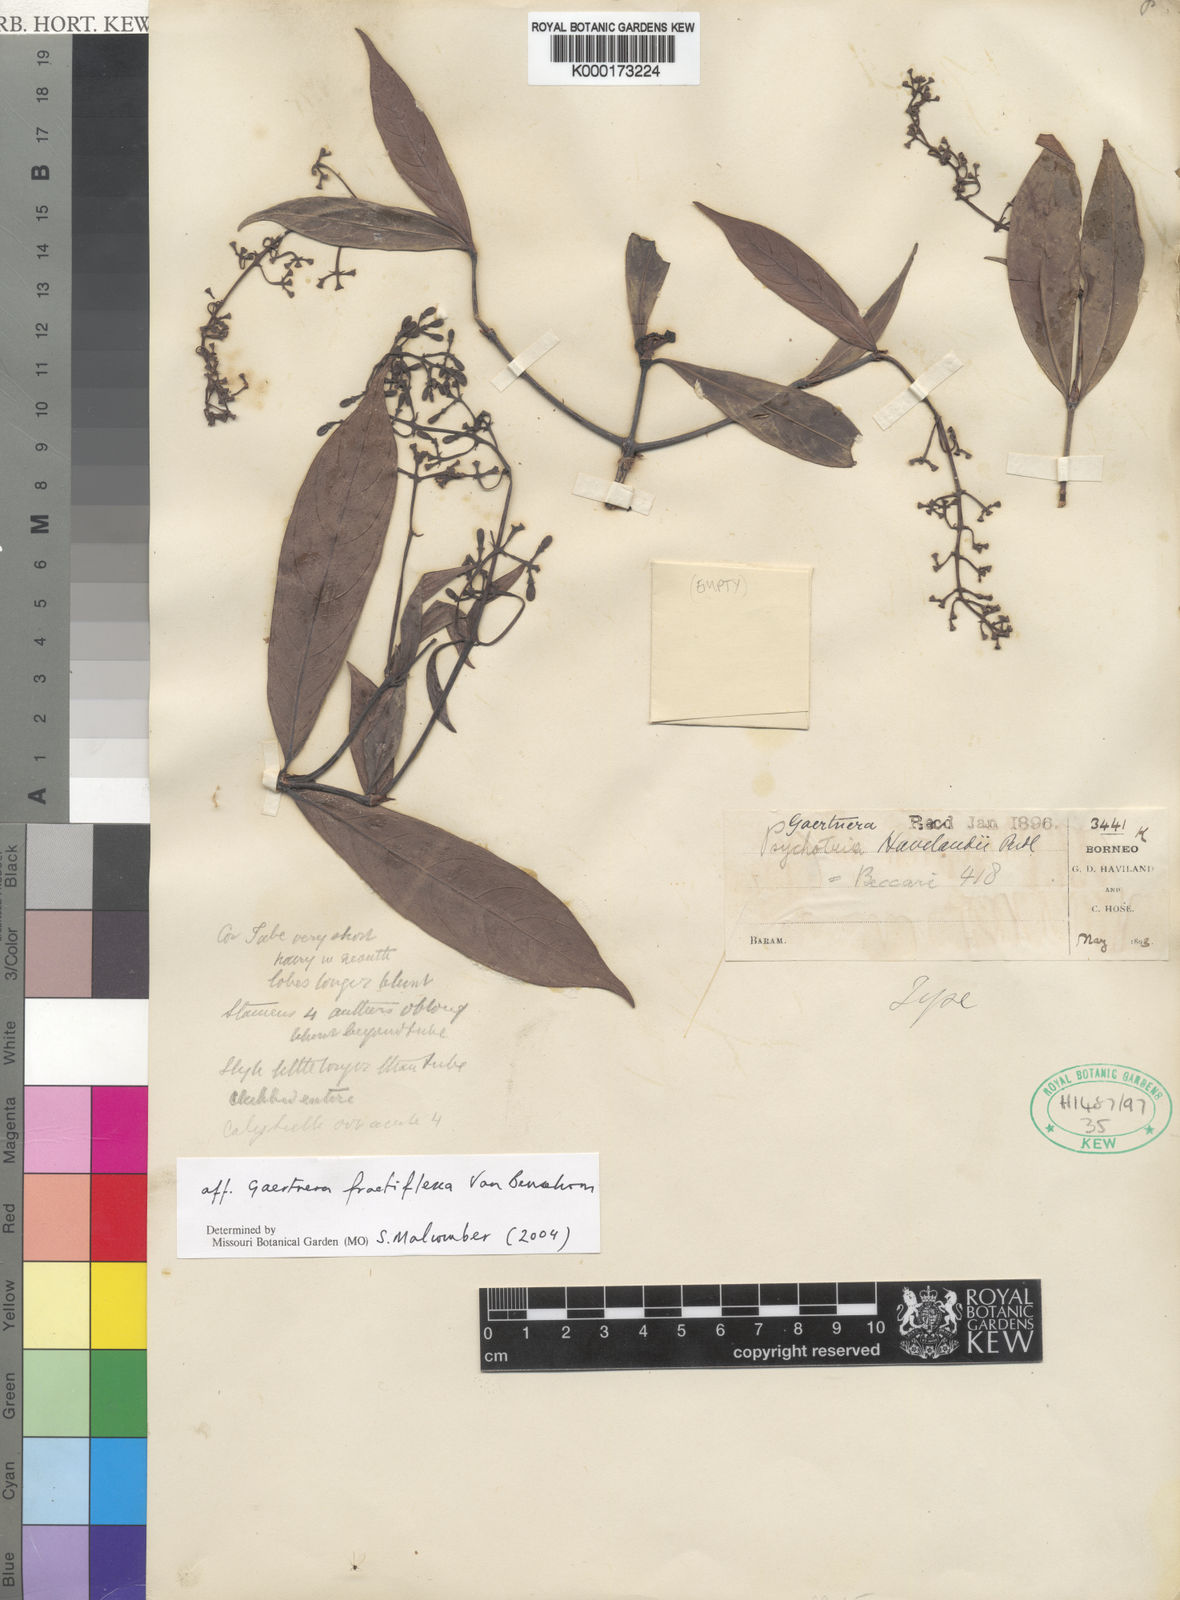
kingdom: Plantae
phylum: Tracheophyta
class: Magnoliopsida
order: Gentianales
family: Rubiaceae
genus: Gaertnera
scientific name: Gaertnera fractiflexa
